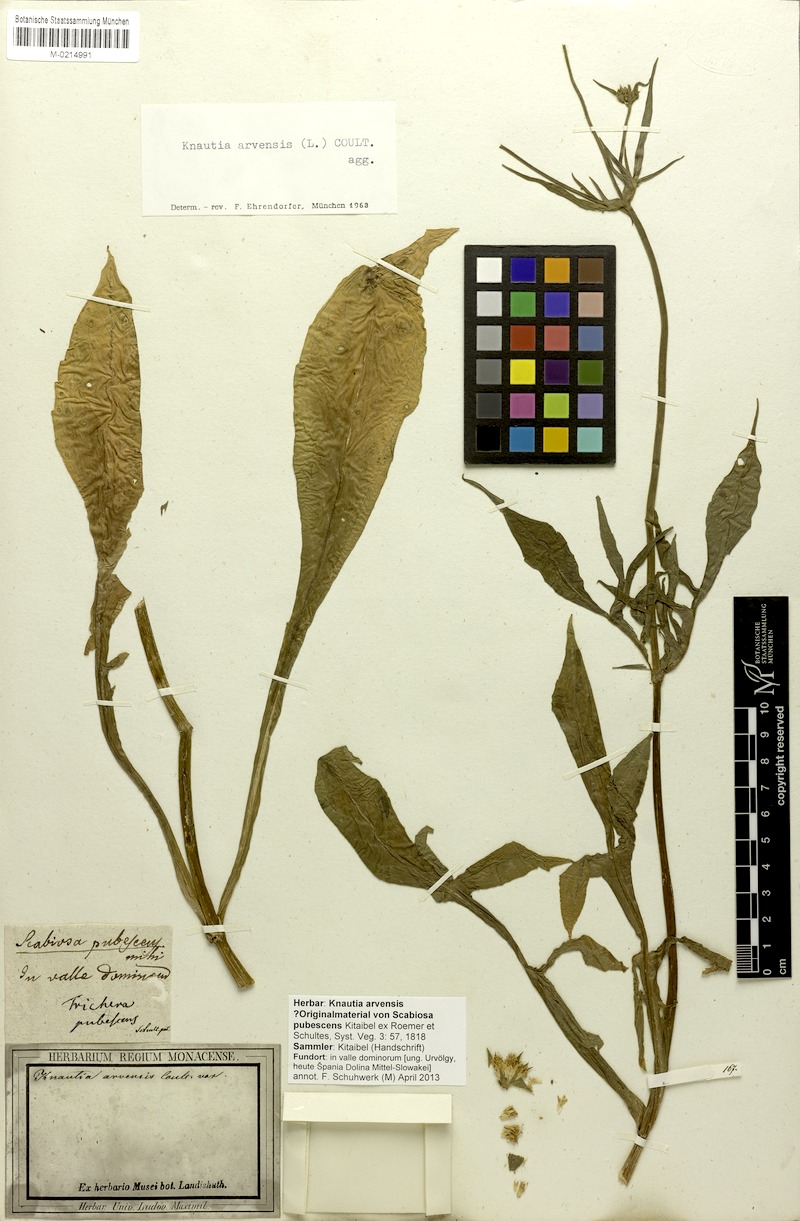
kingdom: Plantae
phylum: Tracheophyta
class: Magnoliopsida
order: Dipsacales
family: Caprifoliaceae
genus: Knautia
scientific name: Knautia arvensis
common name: Field scabiosa
